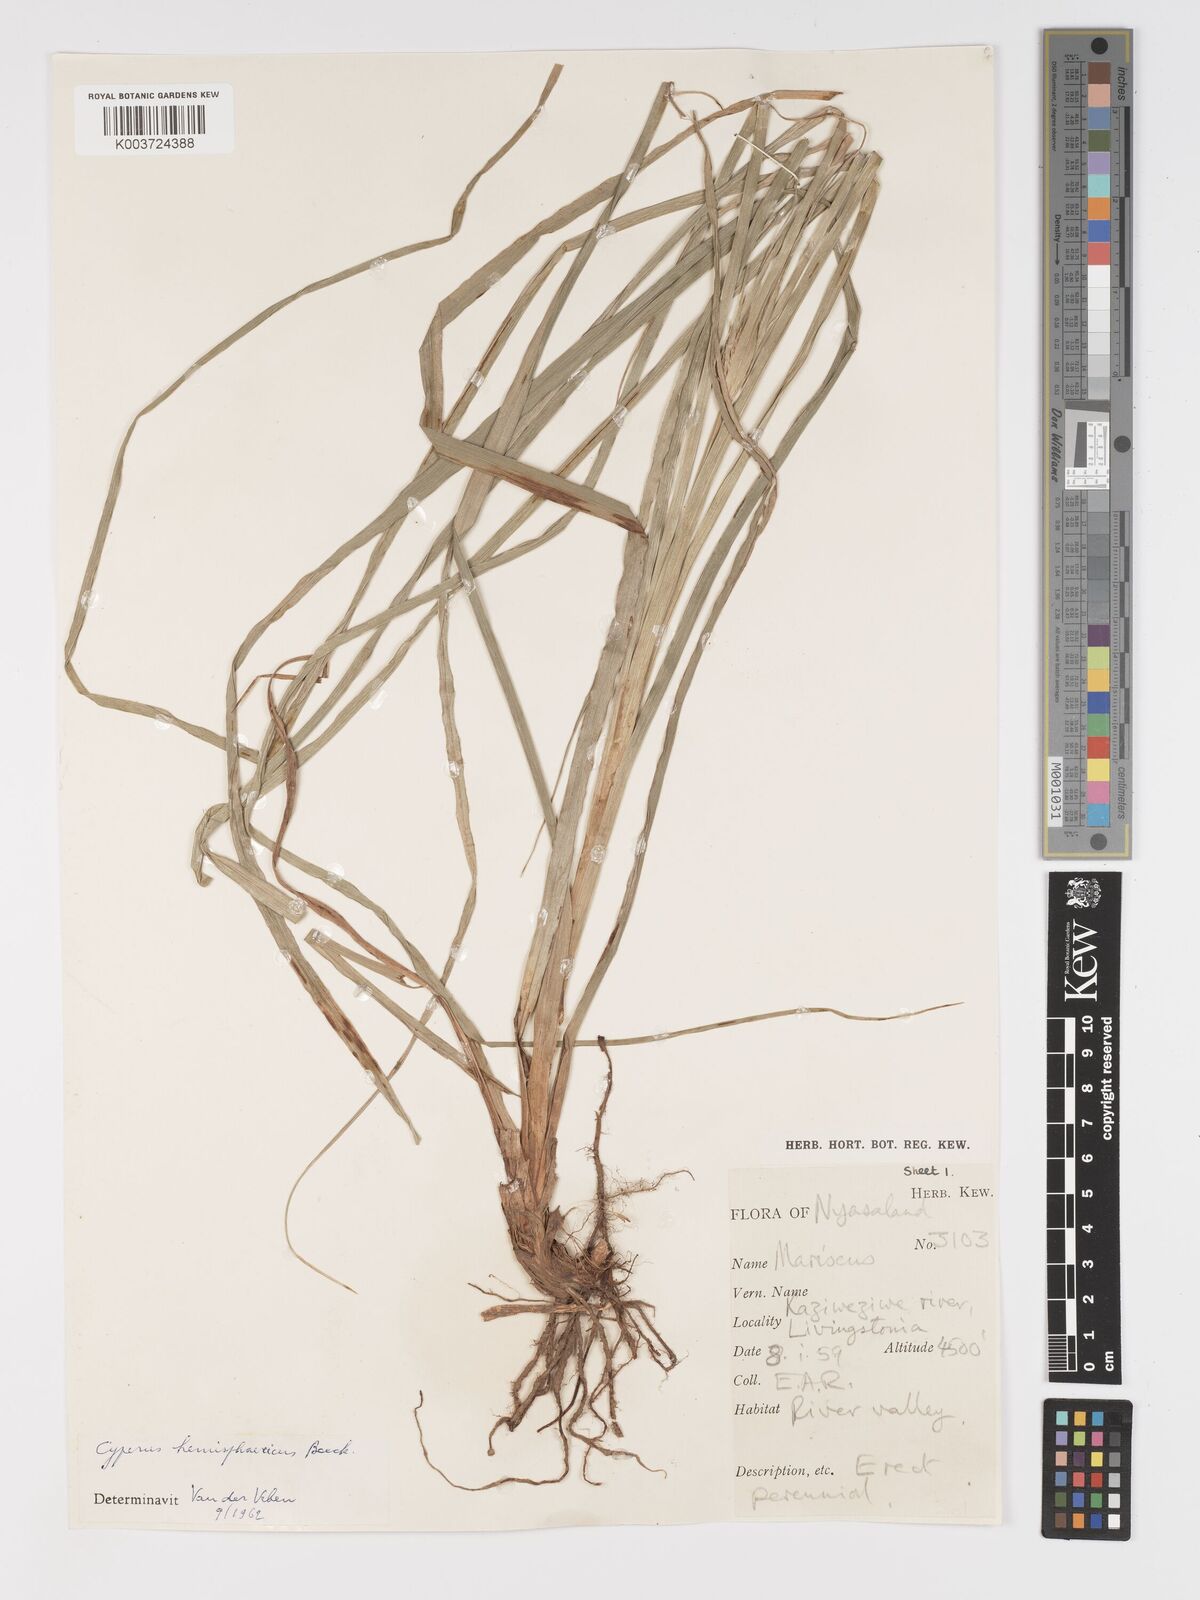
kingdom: Plantae
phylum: Tracheophyta
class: Liliopsida
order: Poales
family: Cyperaceae
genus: Cyperus
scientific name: Cyperus hemisphaericus
